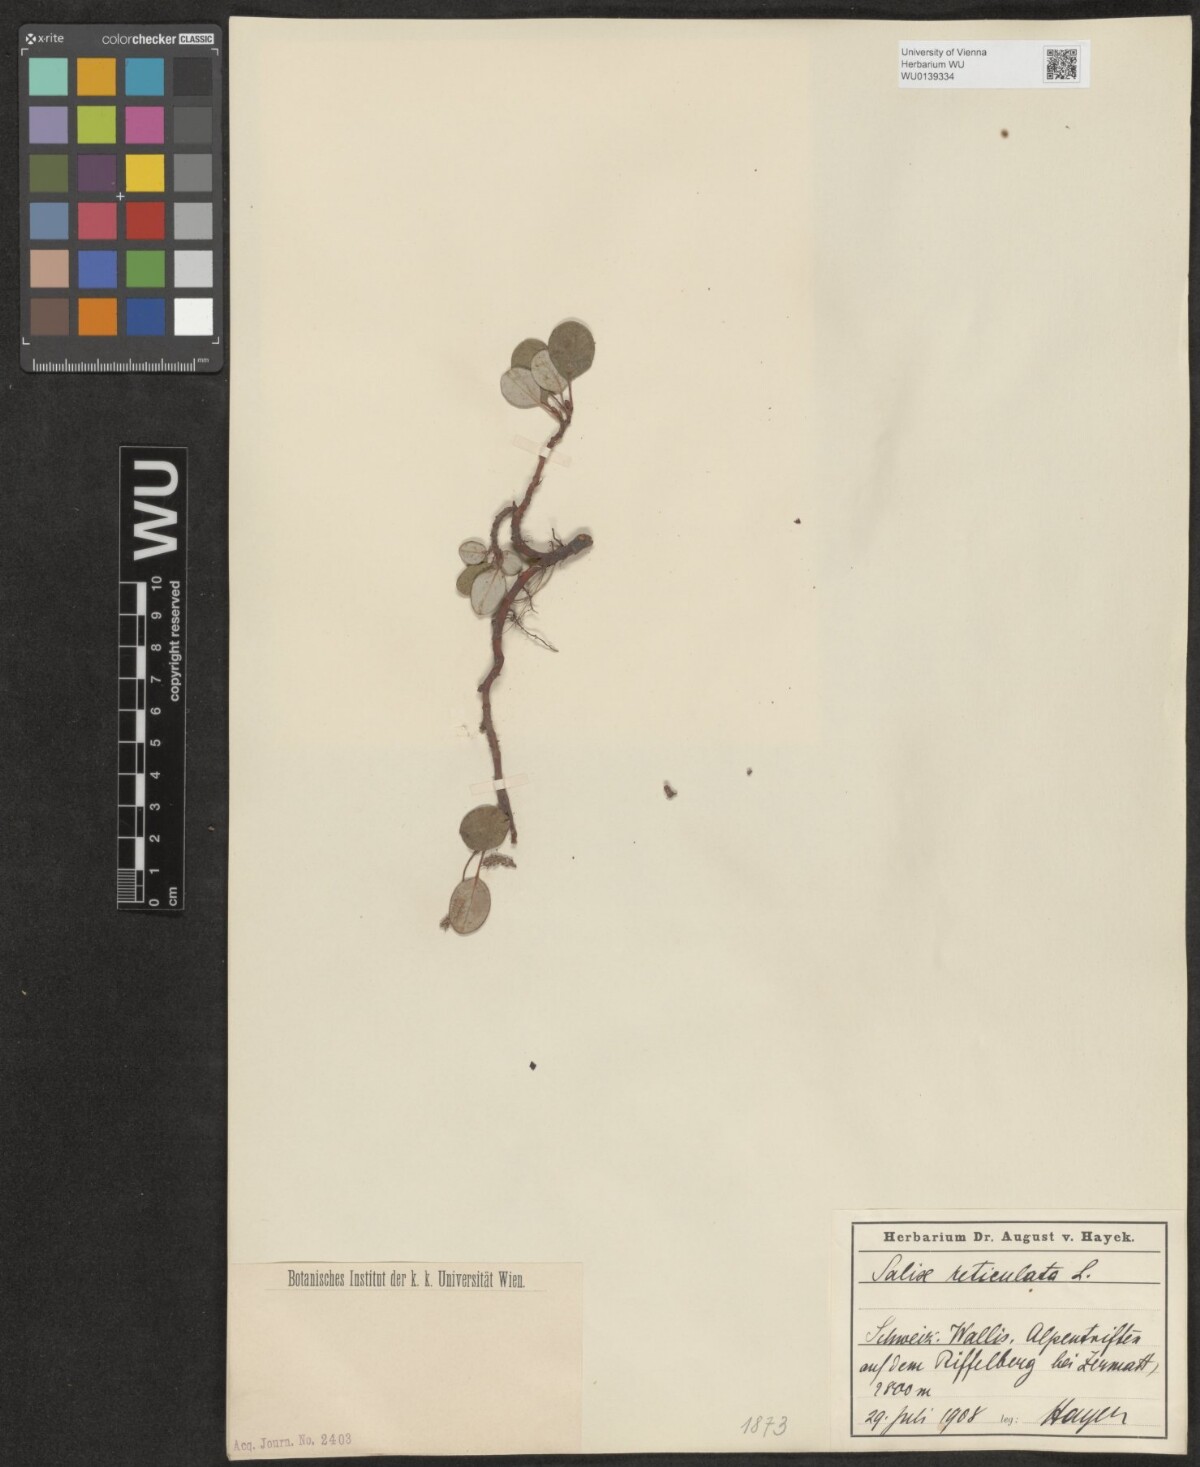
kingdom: Plantae
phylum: Tracheophyta
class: Magnoliopsida
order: Malpighiales
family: Salicaceae
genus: Salix
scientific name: Salix reticulata
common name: Net-leaved willow
